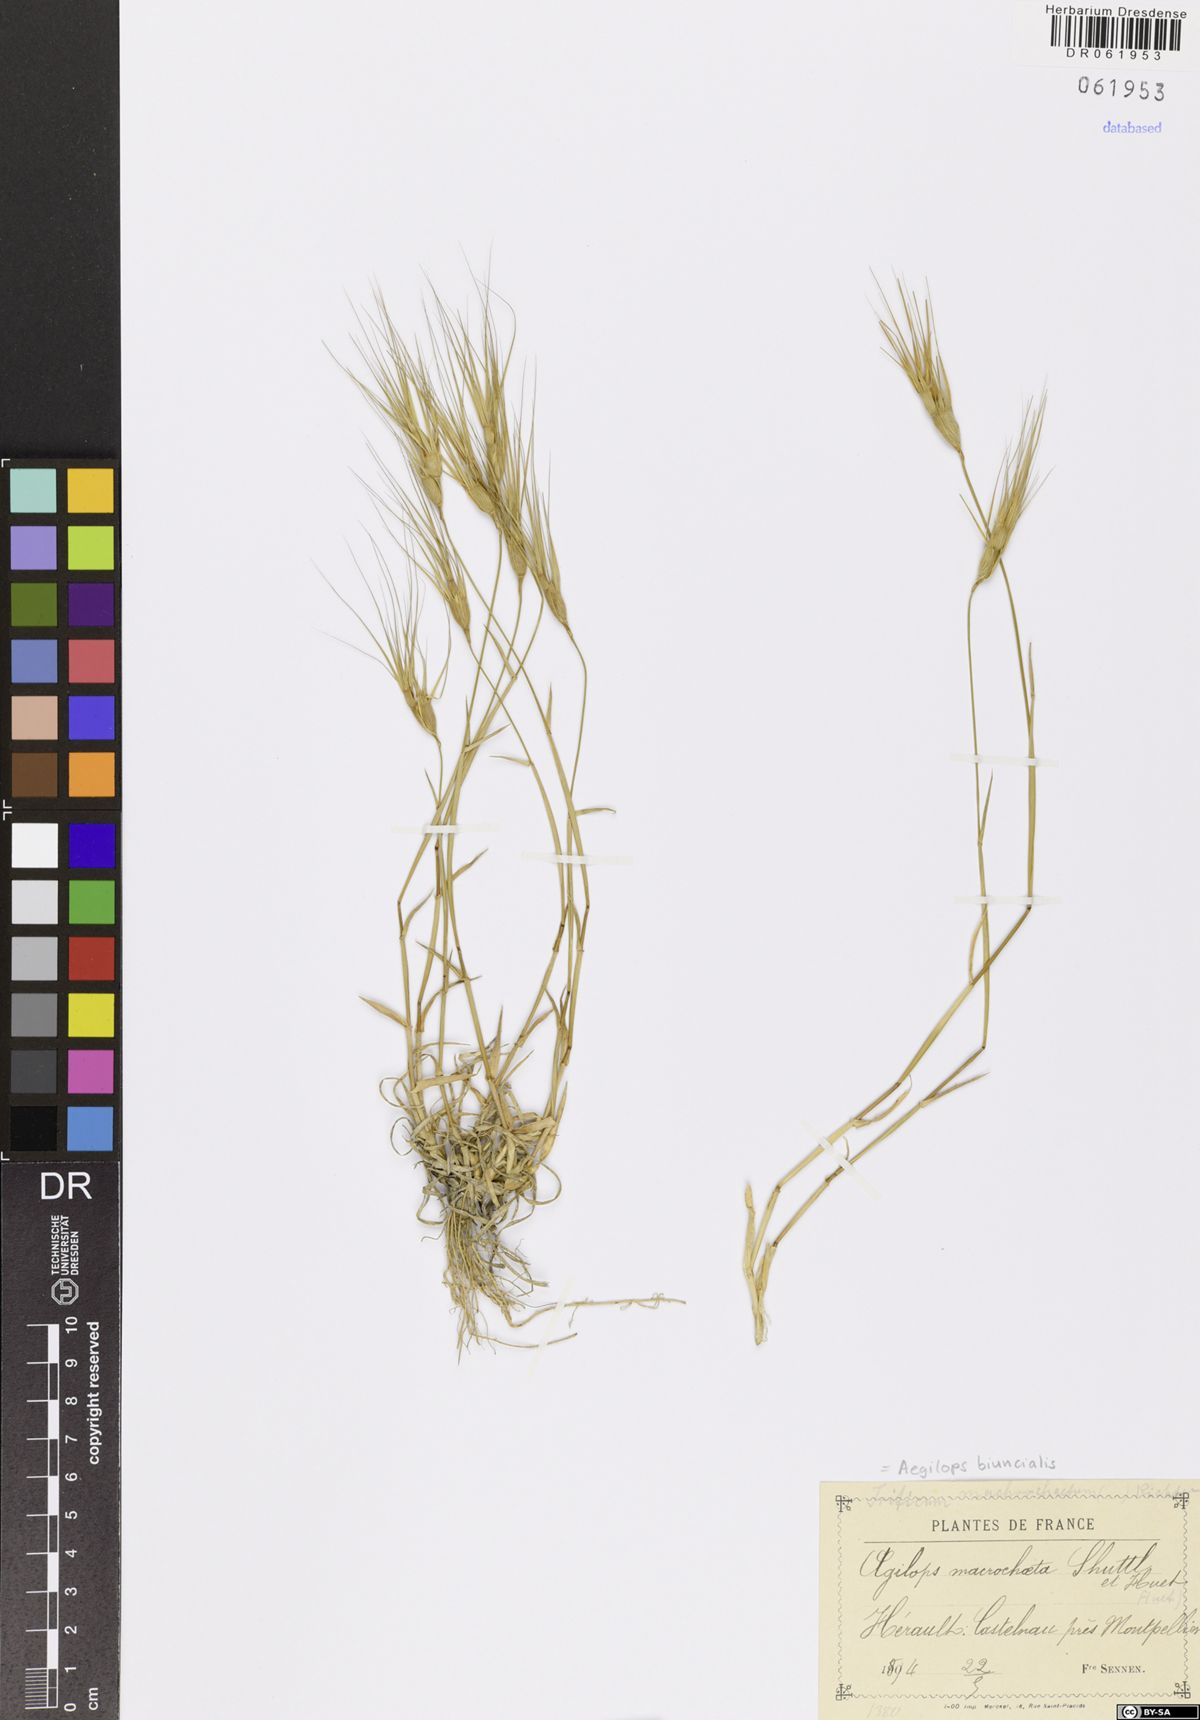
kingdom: Plantae
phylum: Tracheophyta
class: Liliopsida
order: Poales
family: Poaceae
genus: Aegilops
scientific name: Aegilops biuncialis
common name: Mediterranean aegilops
